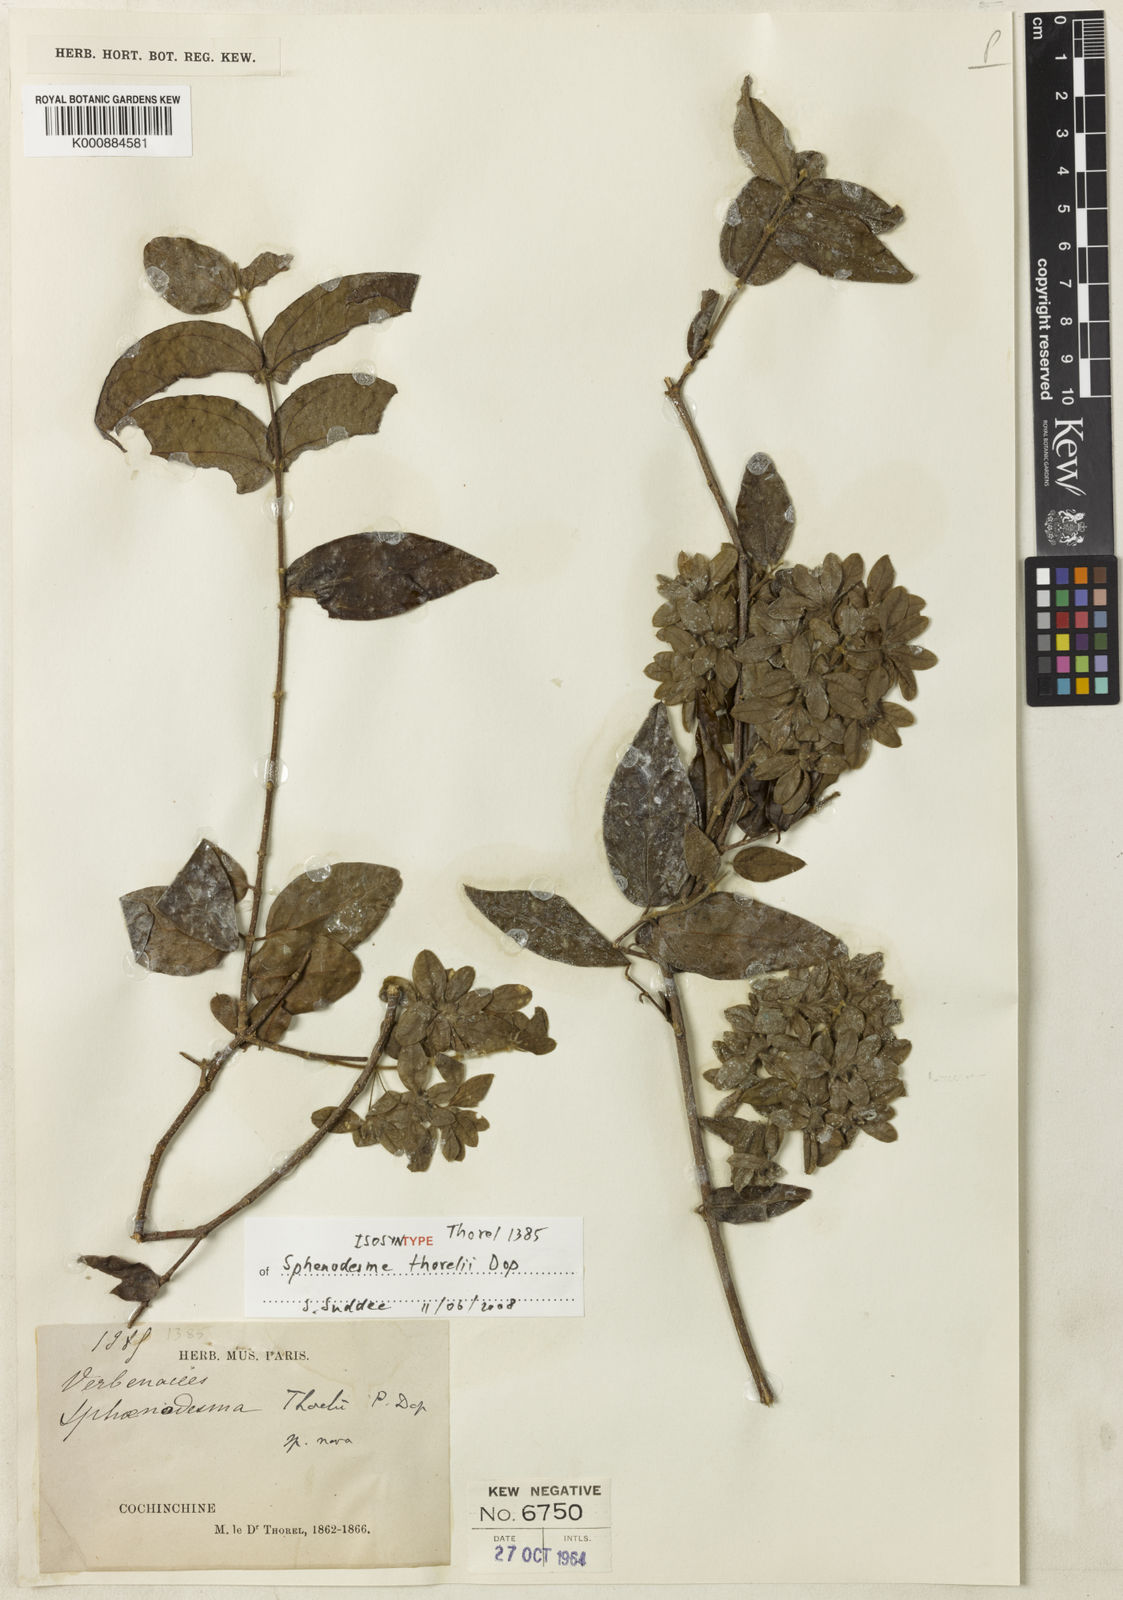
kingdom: Plantae
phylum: Tracheophyta
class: Magnoliopsida
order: Lamiales
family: Lamiaceae
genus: Sphenodesme
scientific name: Sphenodesme thorelii
